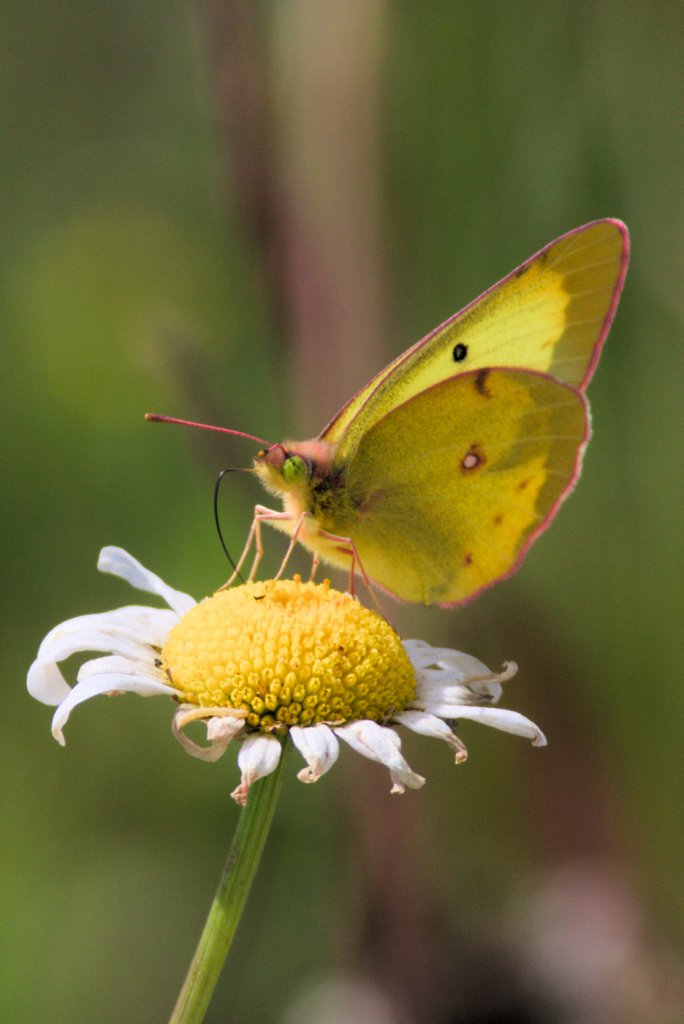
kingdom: Animalia
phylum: Arthropoda
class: Insecta
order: Lepidoptera
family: Pieridae
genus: Colias
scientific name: Colias philodice
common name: Clouded Sulphur
